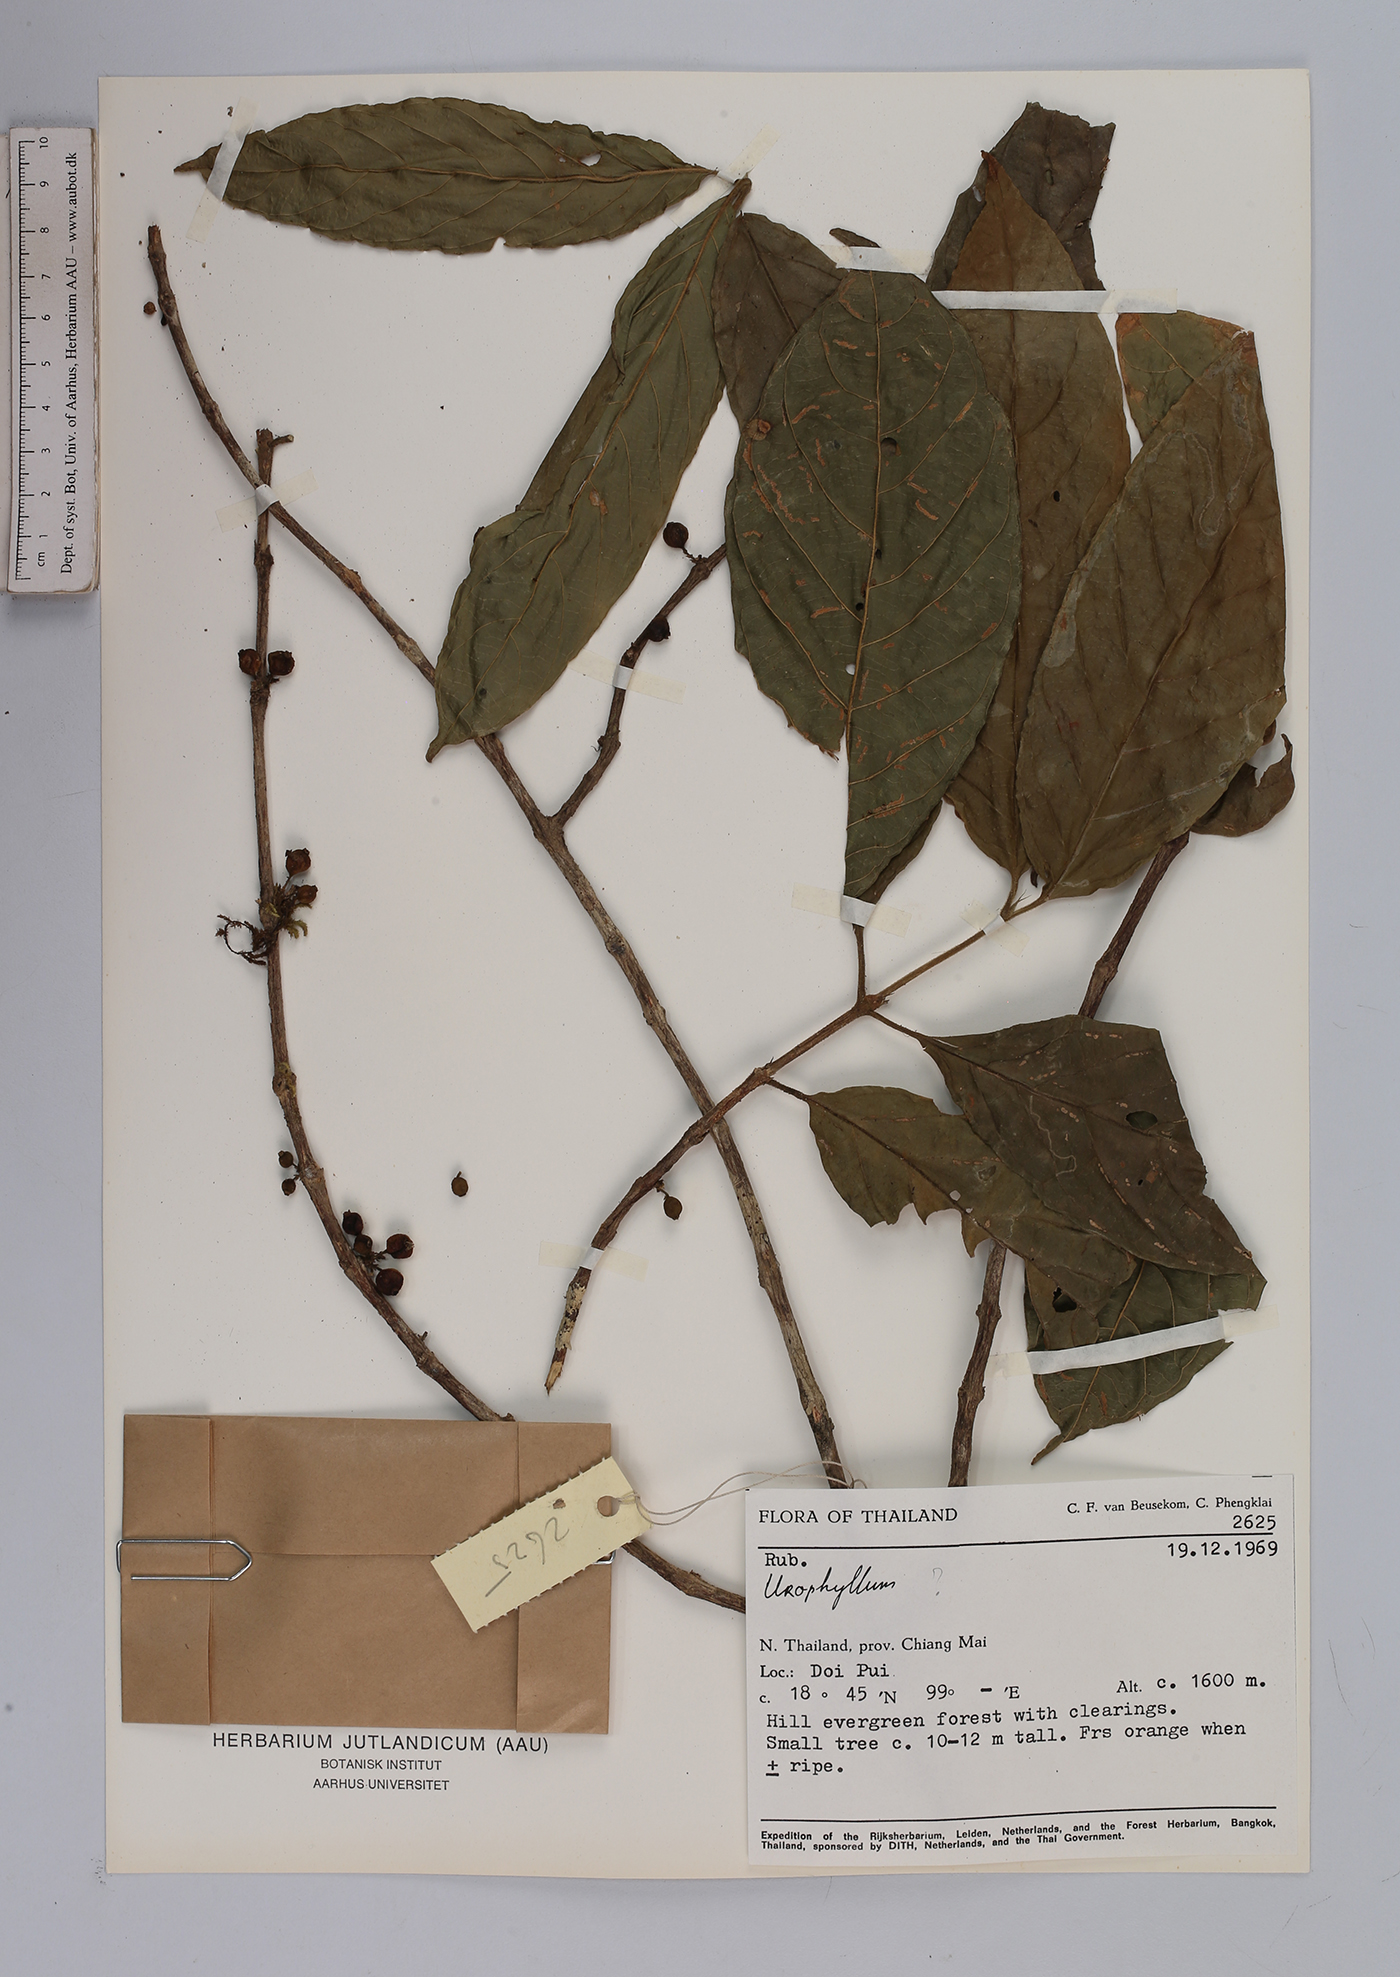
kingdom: Plantae
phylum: Tracheophyta
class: Magnoliopsida
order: Gentianales
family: Rubiaceae
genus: Urophyllum
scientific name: Urophyllum
